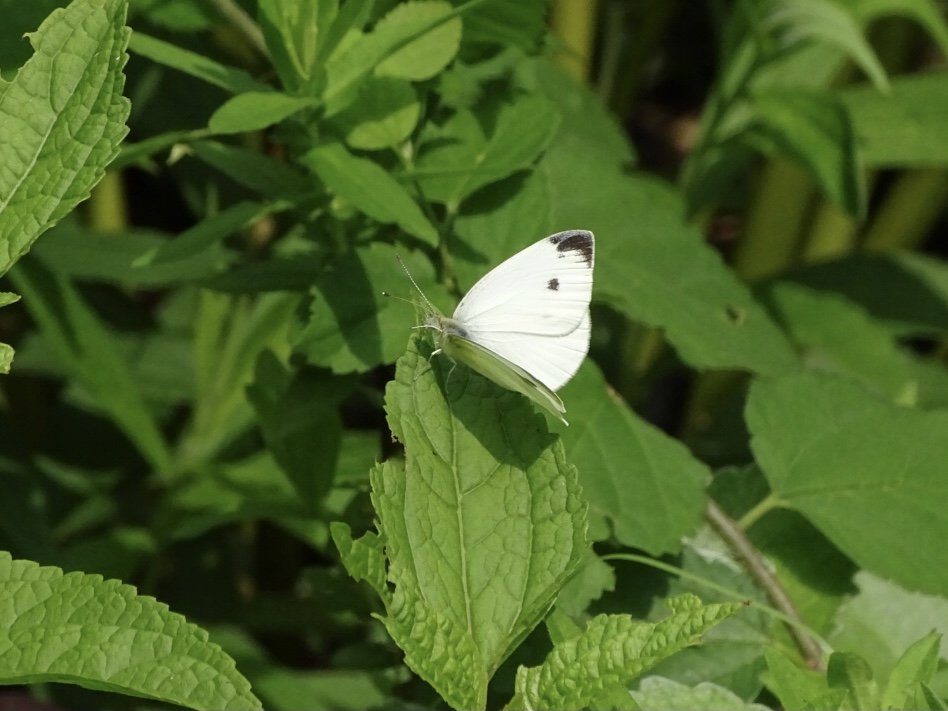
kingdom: Animalia
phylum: Arthropoda
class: Insecta
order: Lepidoptera
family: Pieridae
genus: Pieris
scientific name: Pieris rapae
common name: Cabbage White
